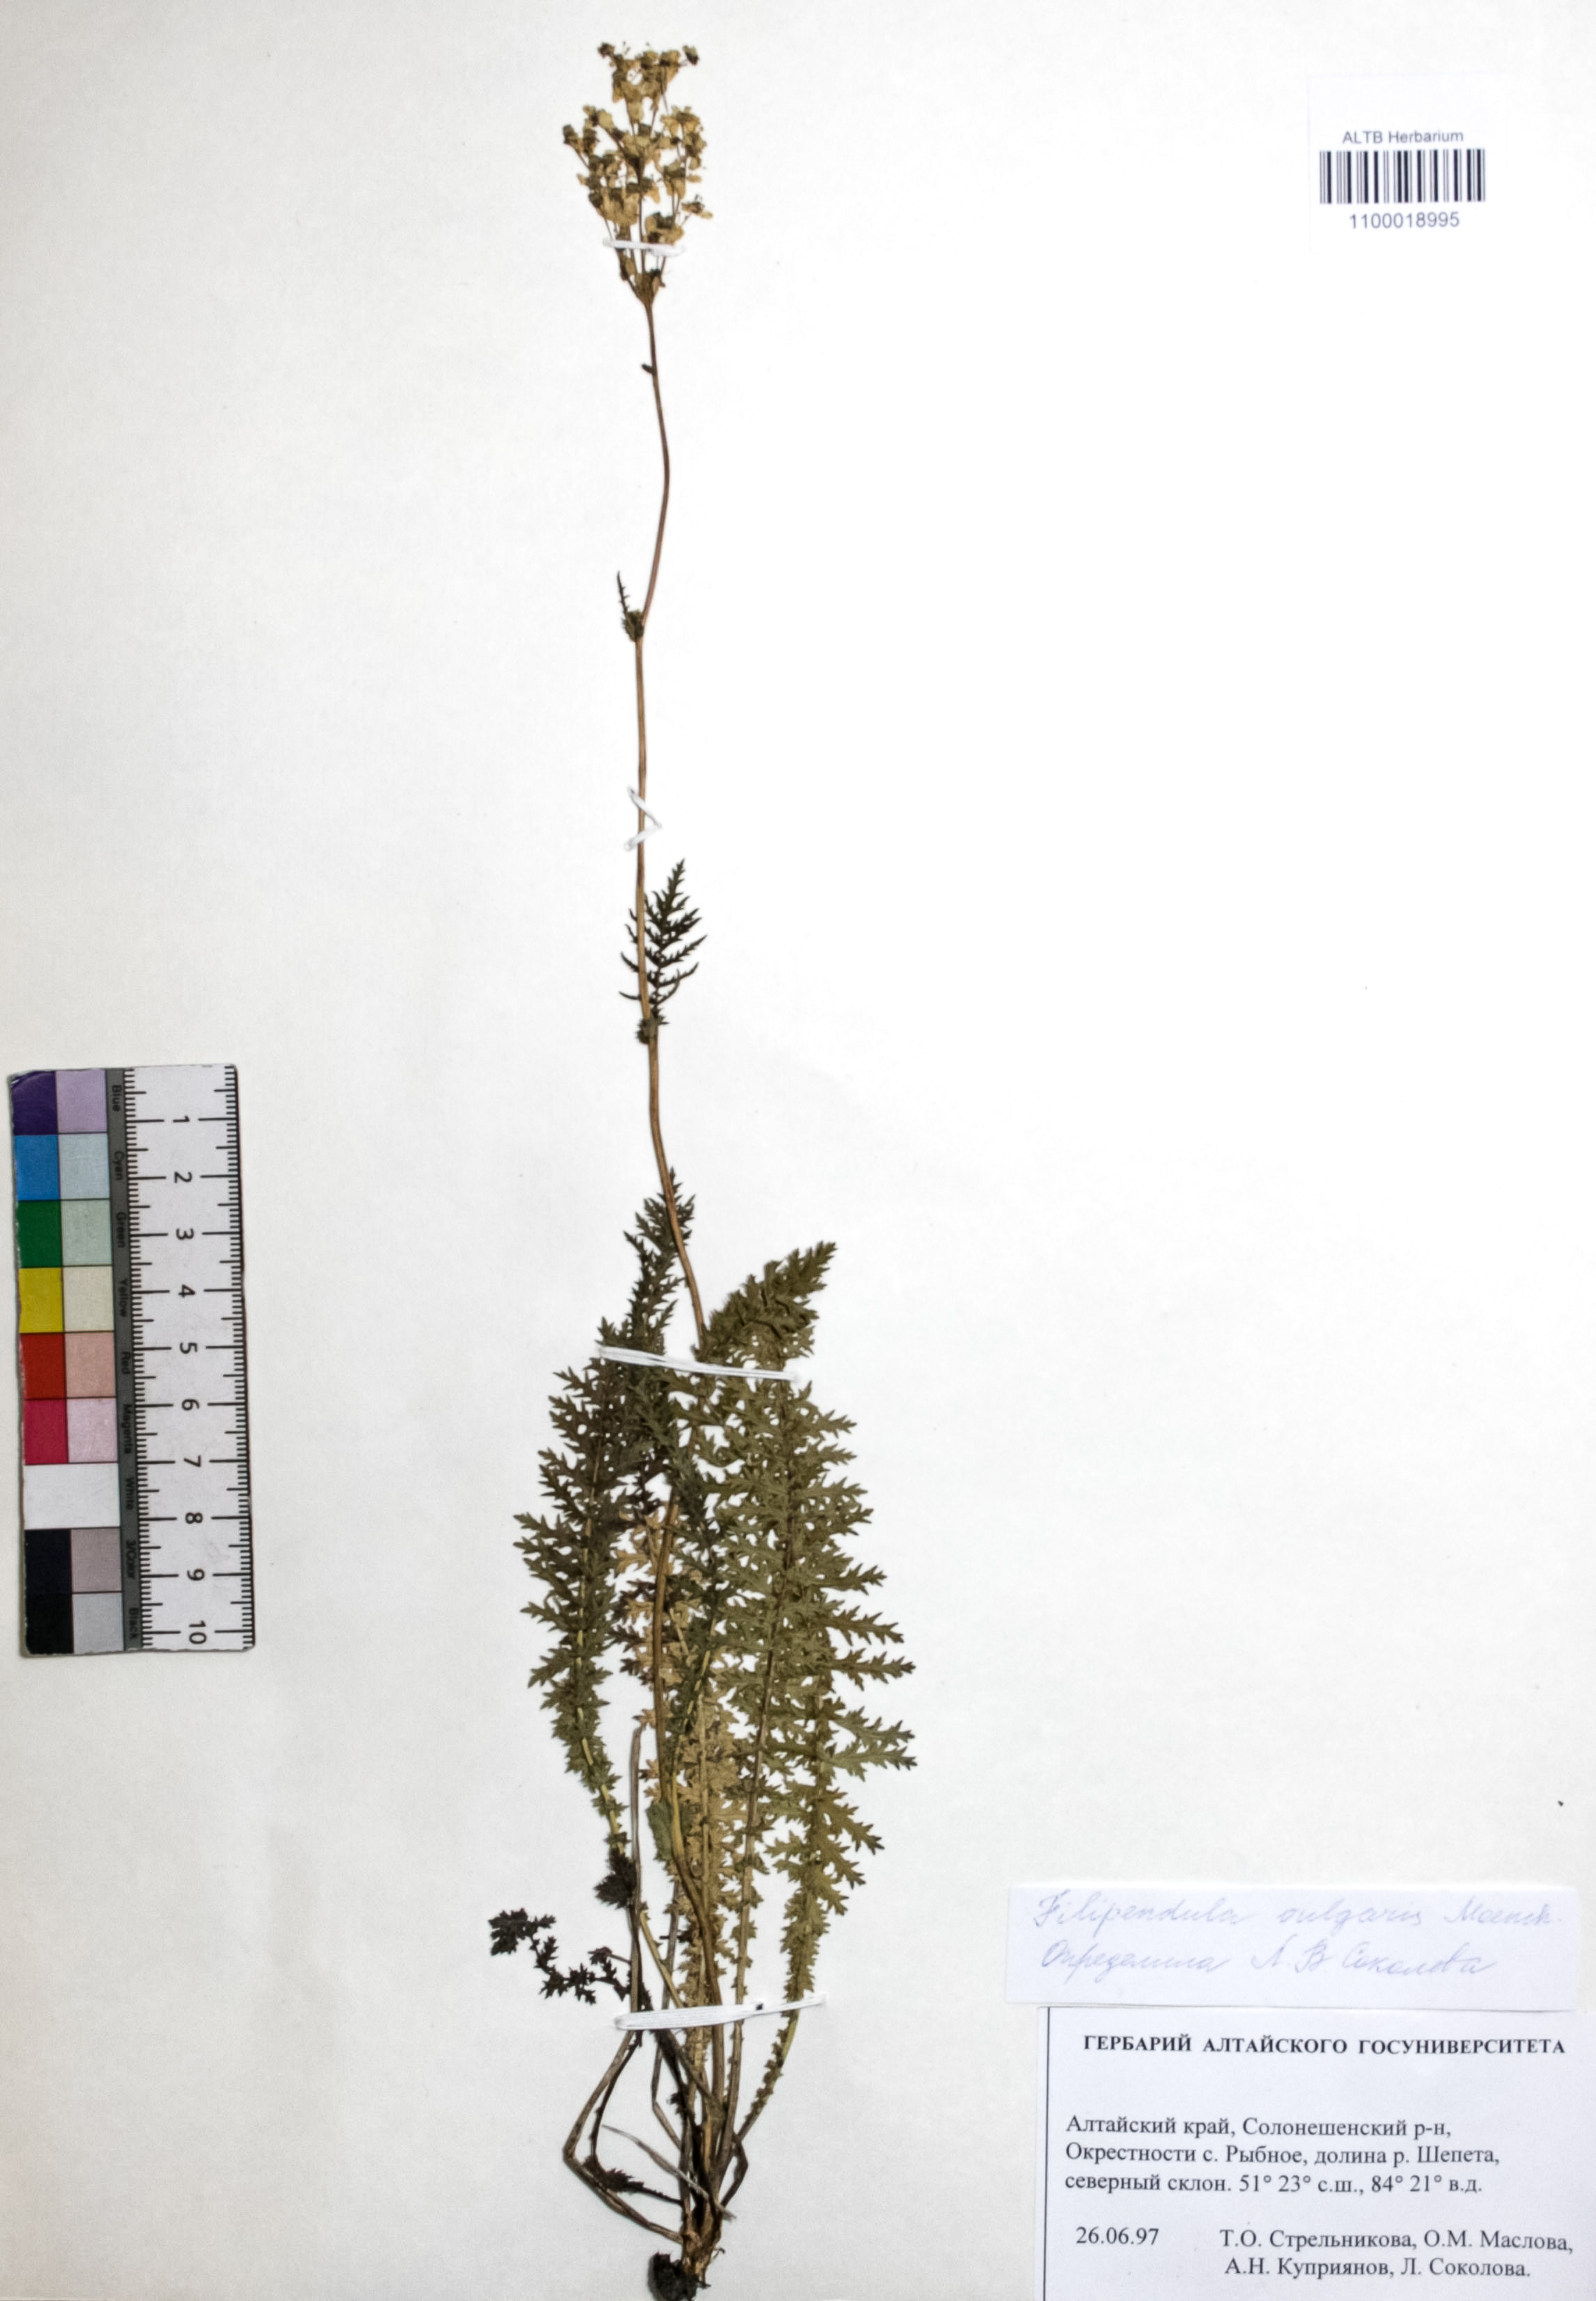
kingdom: Plantae
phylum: Tracheophyta
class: Magnoliopsida
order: Rosales
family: Rosaceae
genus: Filipendula
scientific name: Filipendula vulgaris
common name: Dropwort
